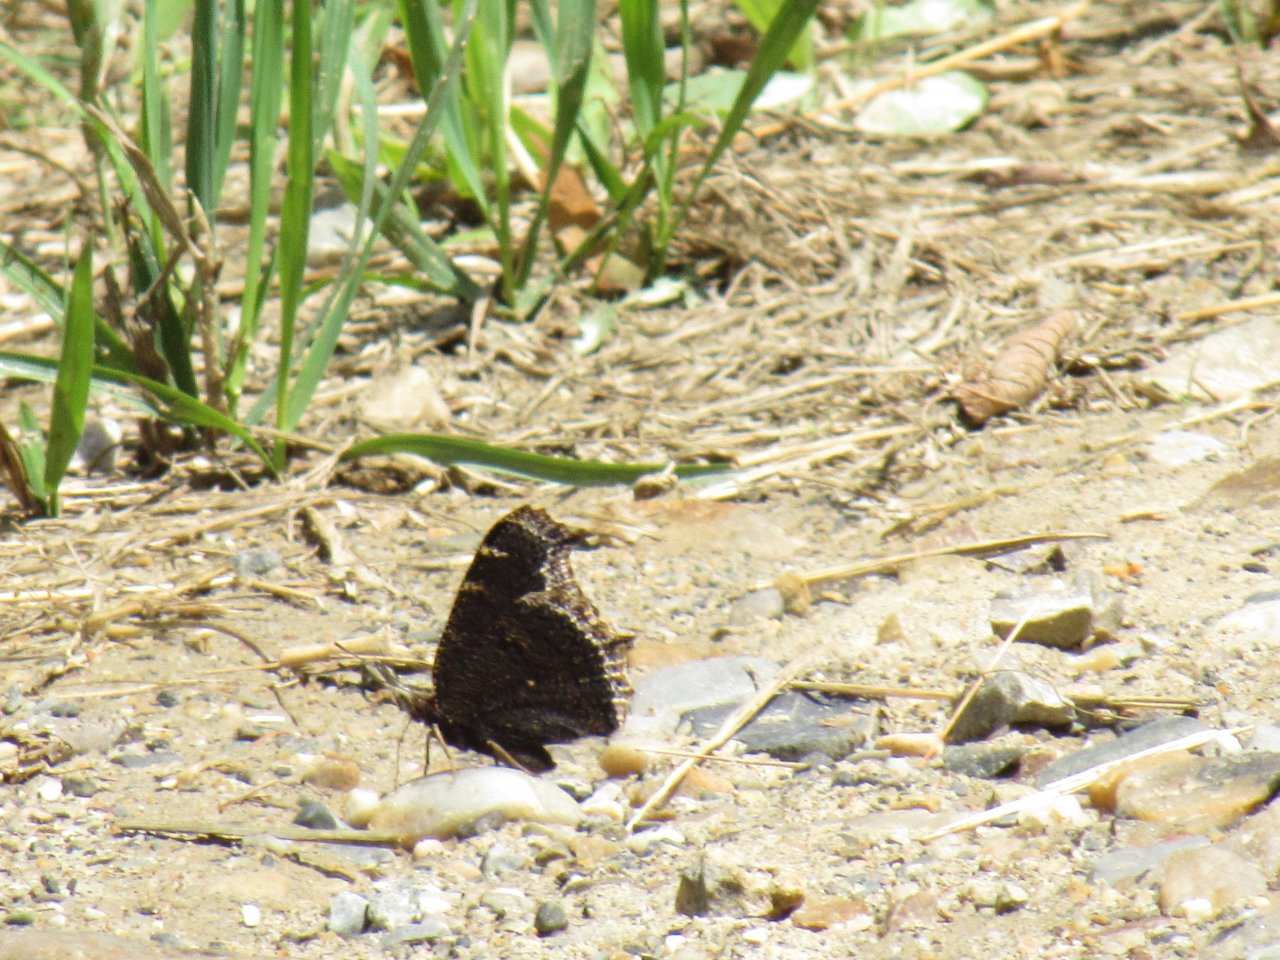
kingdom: Animalia
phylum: Arthropoda
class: Insecta
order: Lepidoptera
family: Nymphalidae
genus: Nymphalis
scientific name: Nymphalis antiopa
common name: Mourning Cloak
